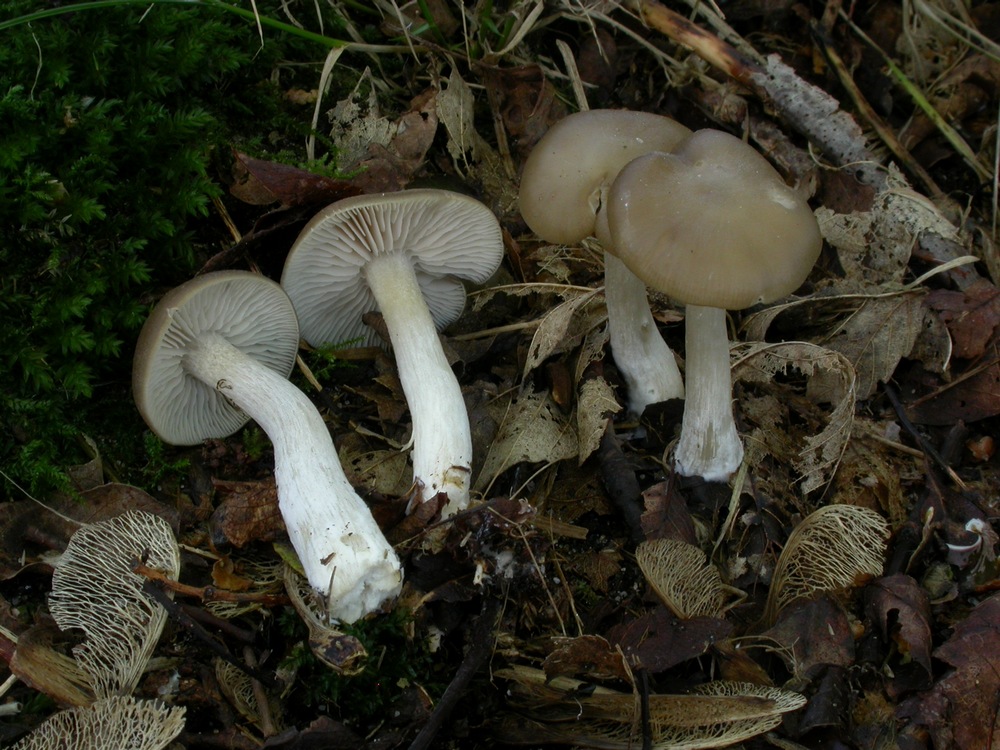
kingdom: Fungi
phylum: Basidiomycota
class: Agaricomycetes
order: Agaricales
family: Entolomataceae
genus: Entoloma
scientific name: Entoloma rhodopolium
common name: skov-rødblad
